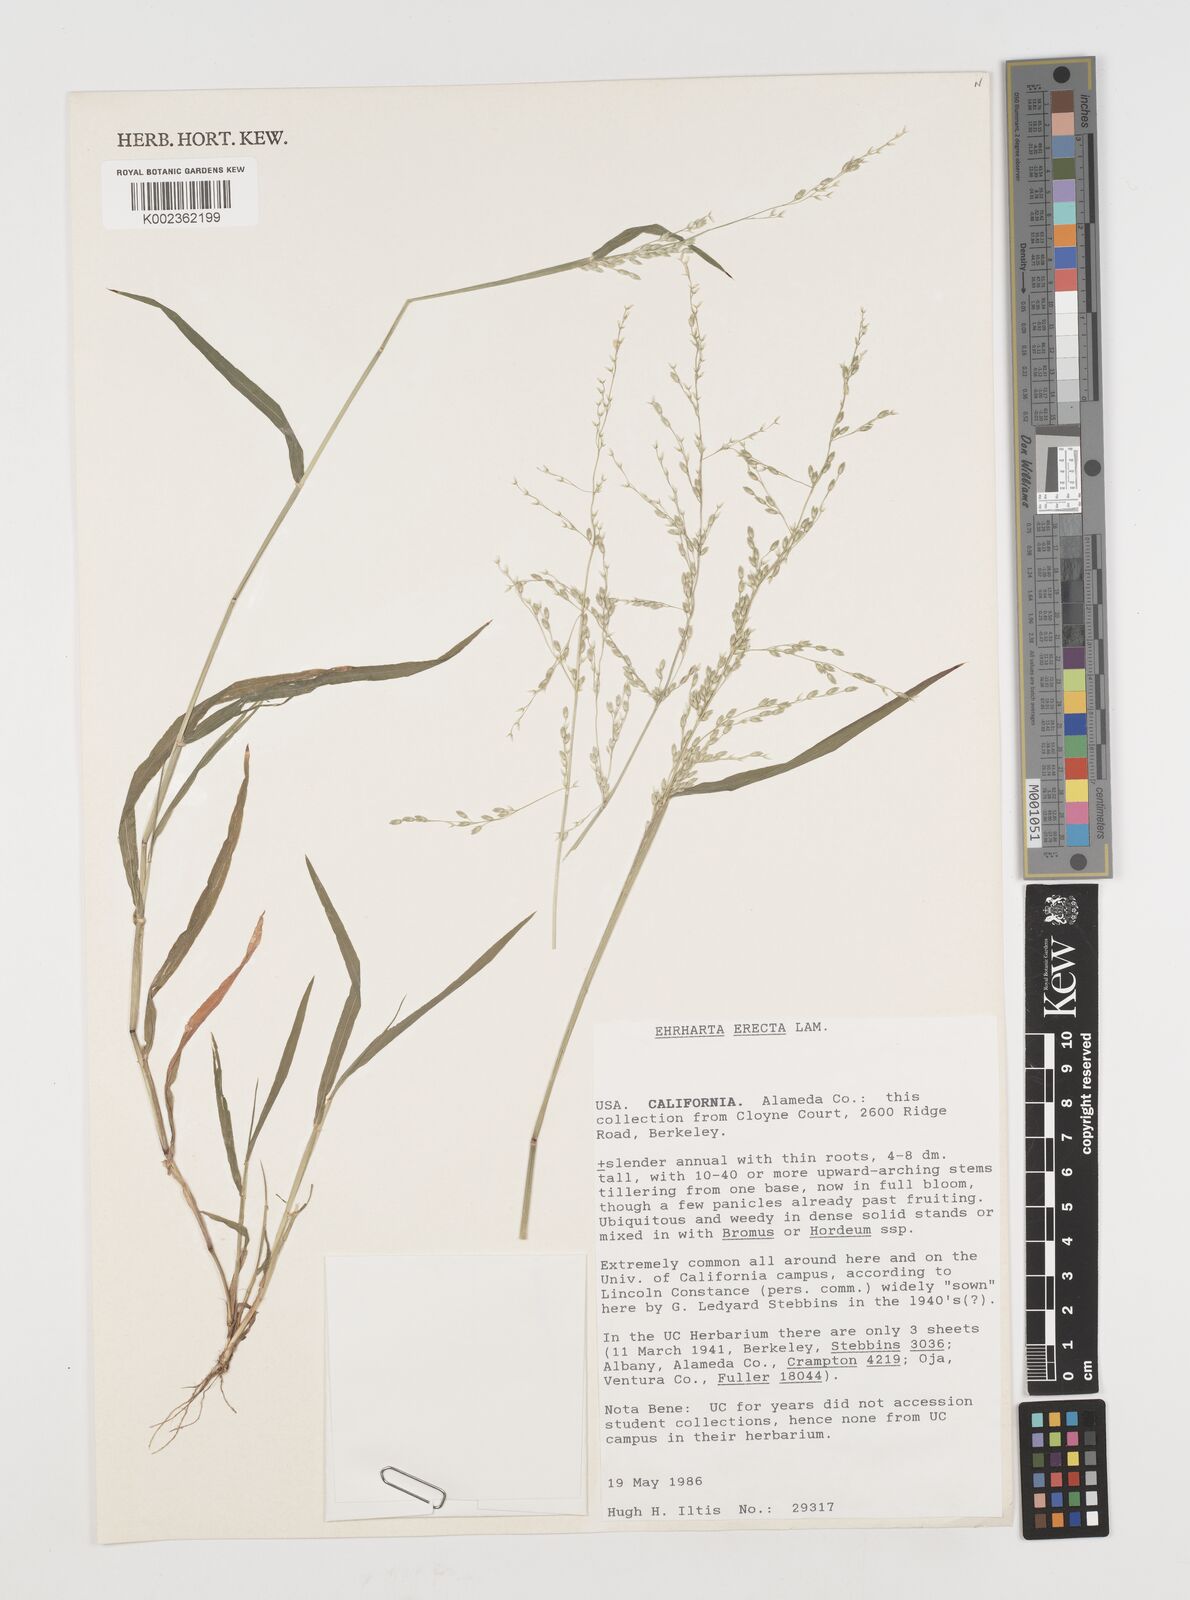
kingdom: Plantae
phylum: Tracheophyta
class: Liliopsida
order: Poales
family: Poaceae
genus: Ehrharta
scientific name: Ehrharta erecta
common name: Panic veldtgrass
